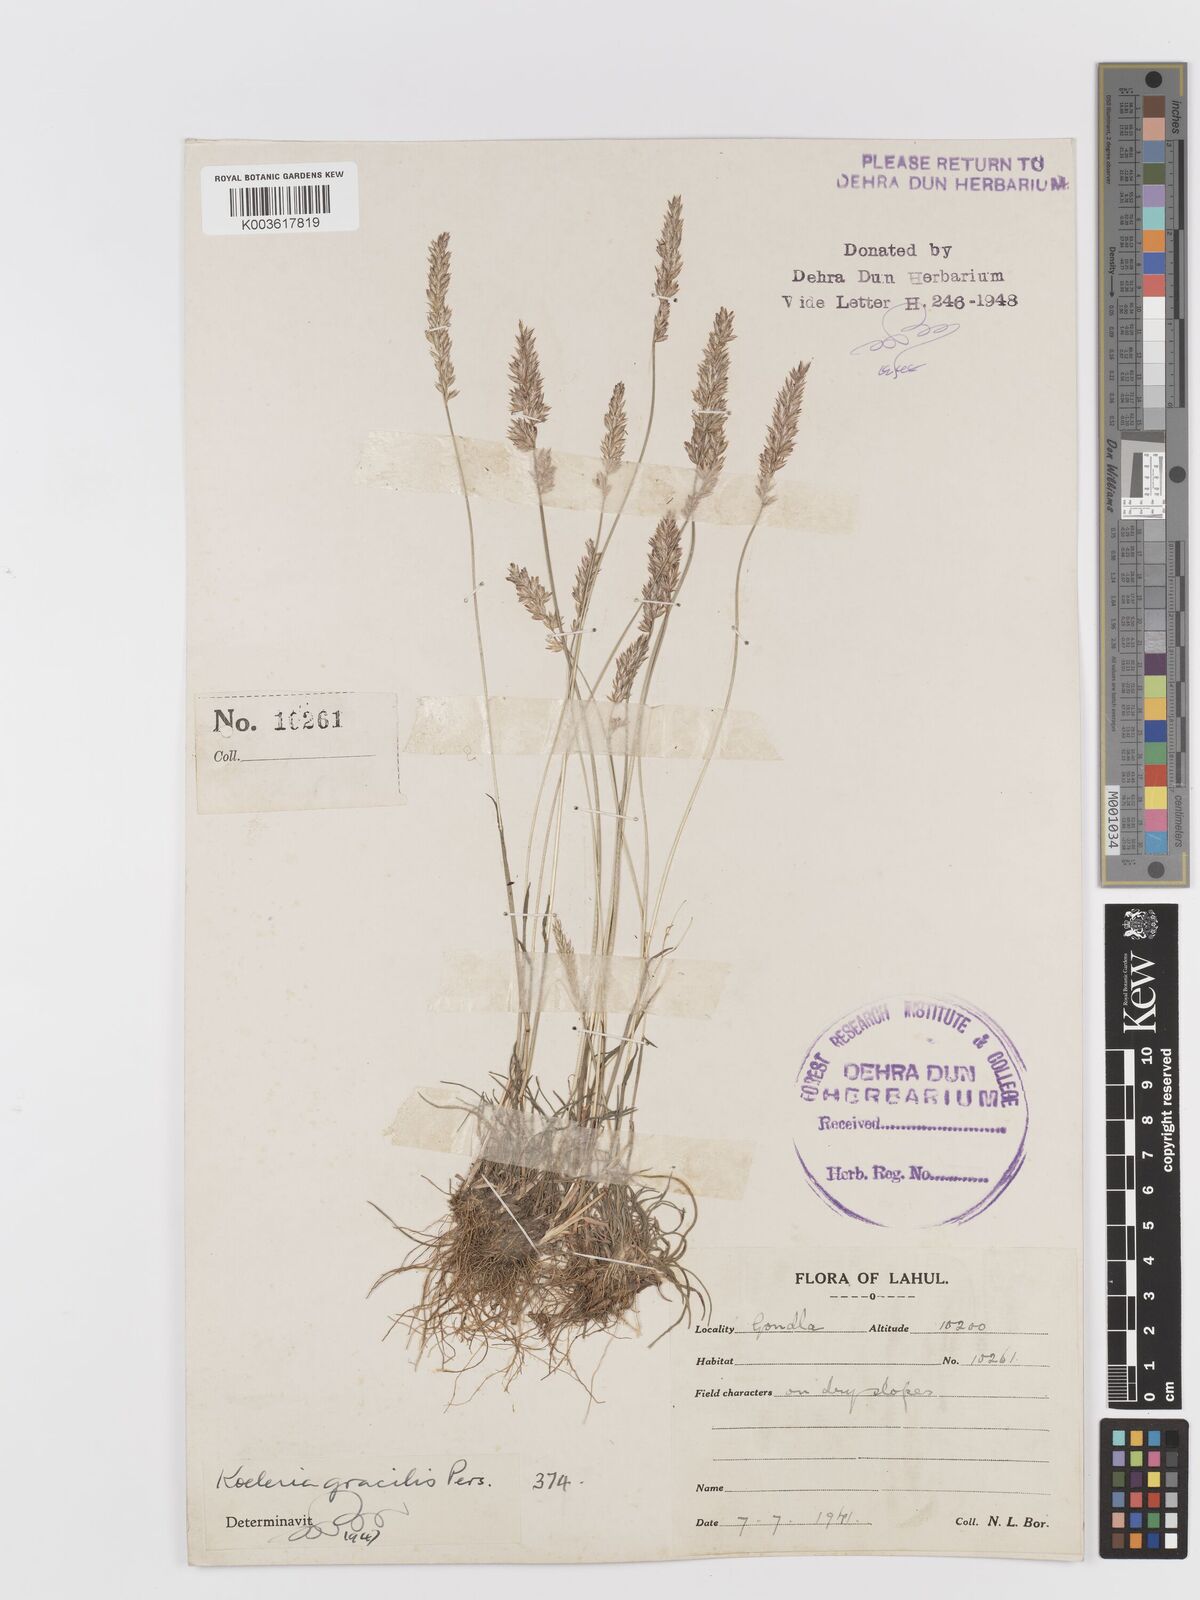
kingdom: Plantae
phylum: Tracheophyta
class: Liliopsida
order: Poales
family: Poaceae
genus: Koeleria
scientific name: Koeleria macrantha
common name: Crested hair-grass
